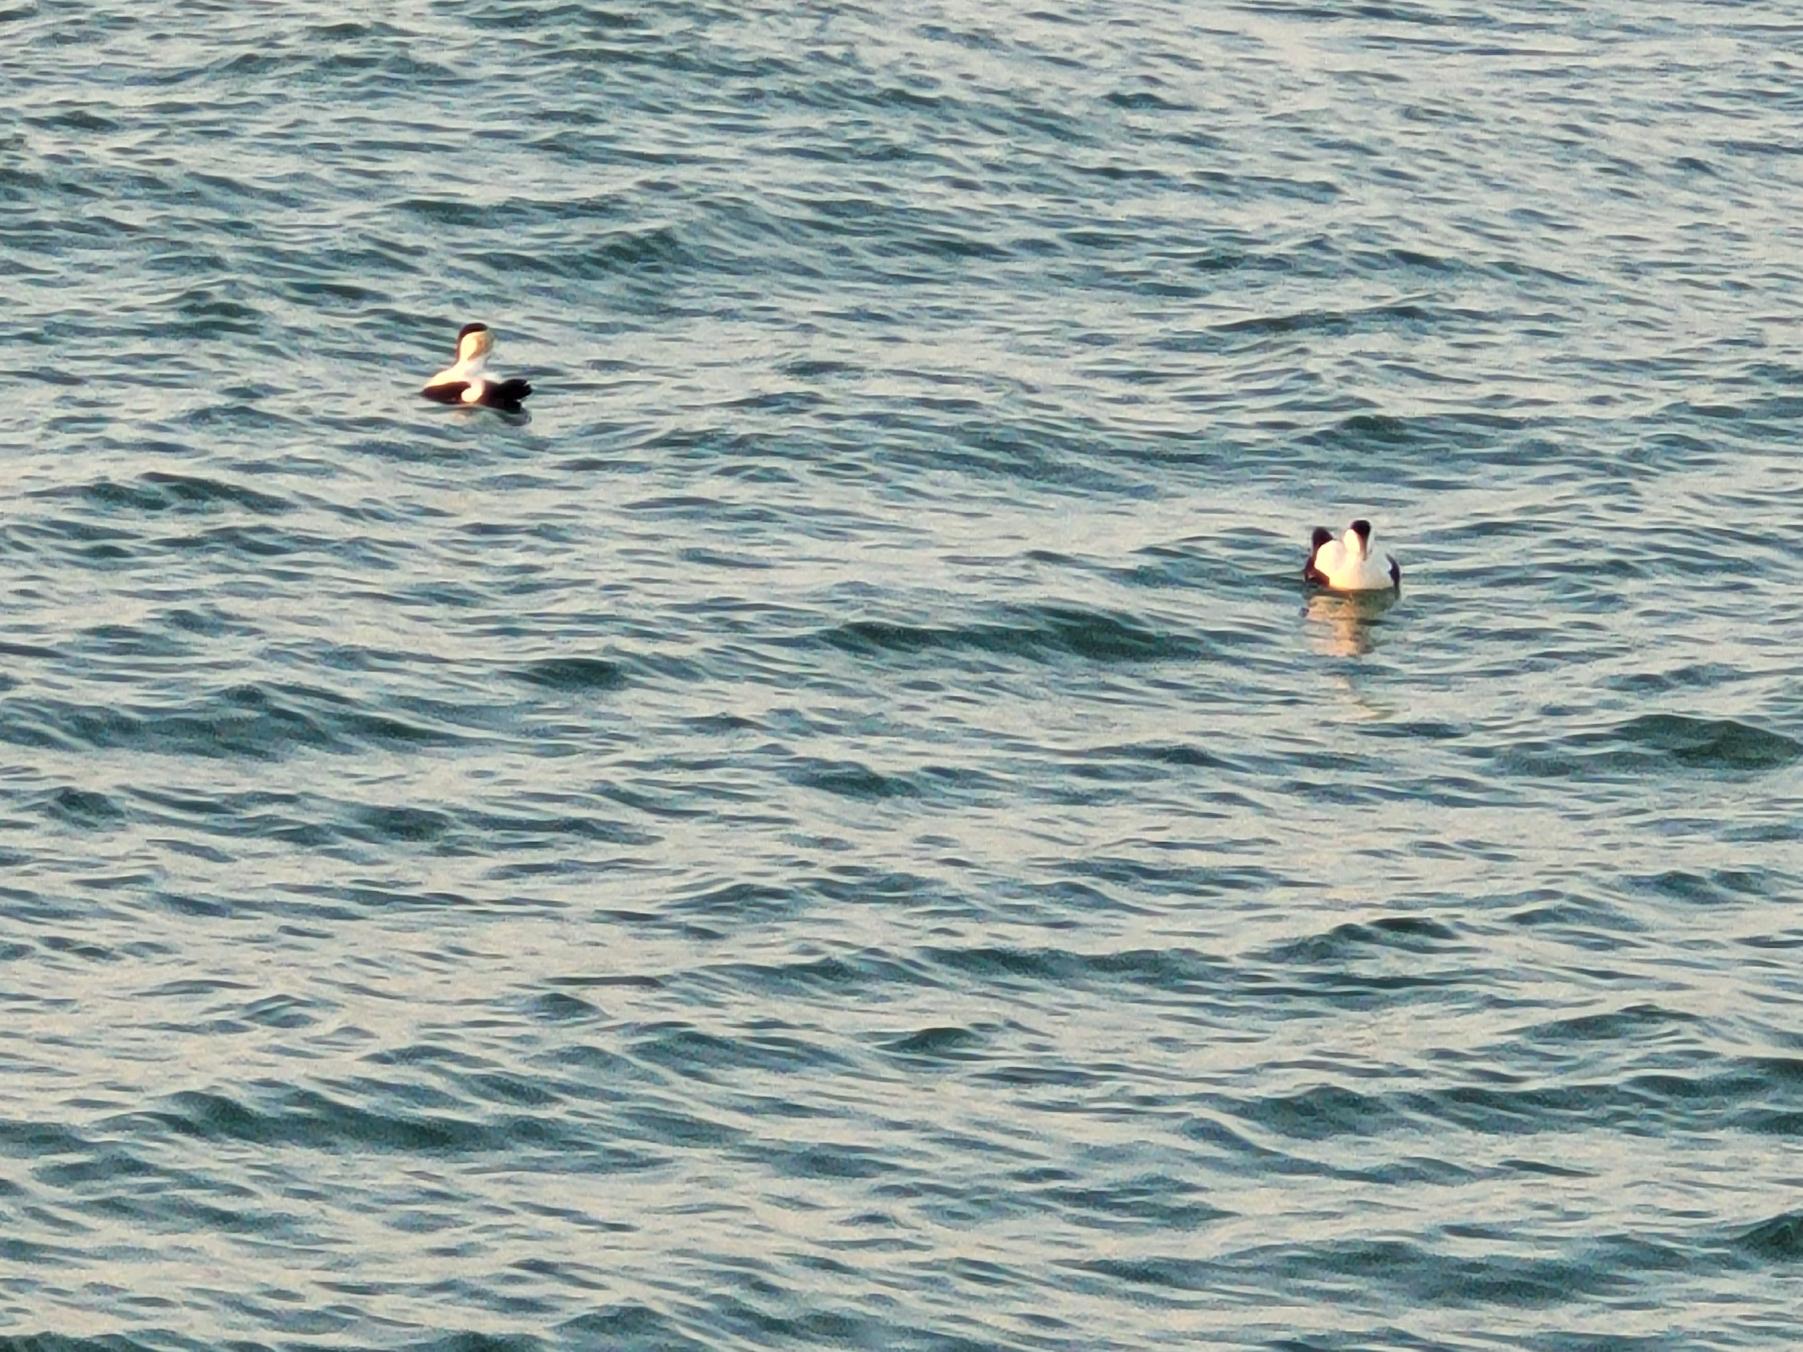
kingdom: Animalia
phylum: Chordata
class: Aves
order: Anseriformes
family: Anatidae
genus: Somateria
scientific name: Somateria mollissima
